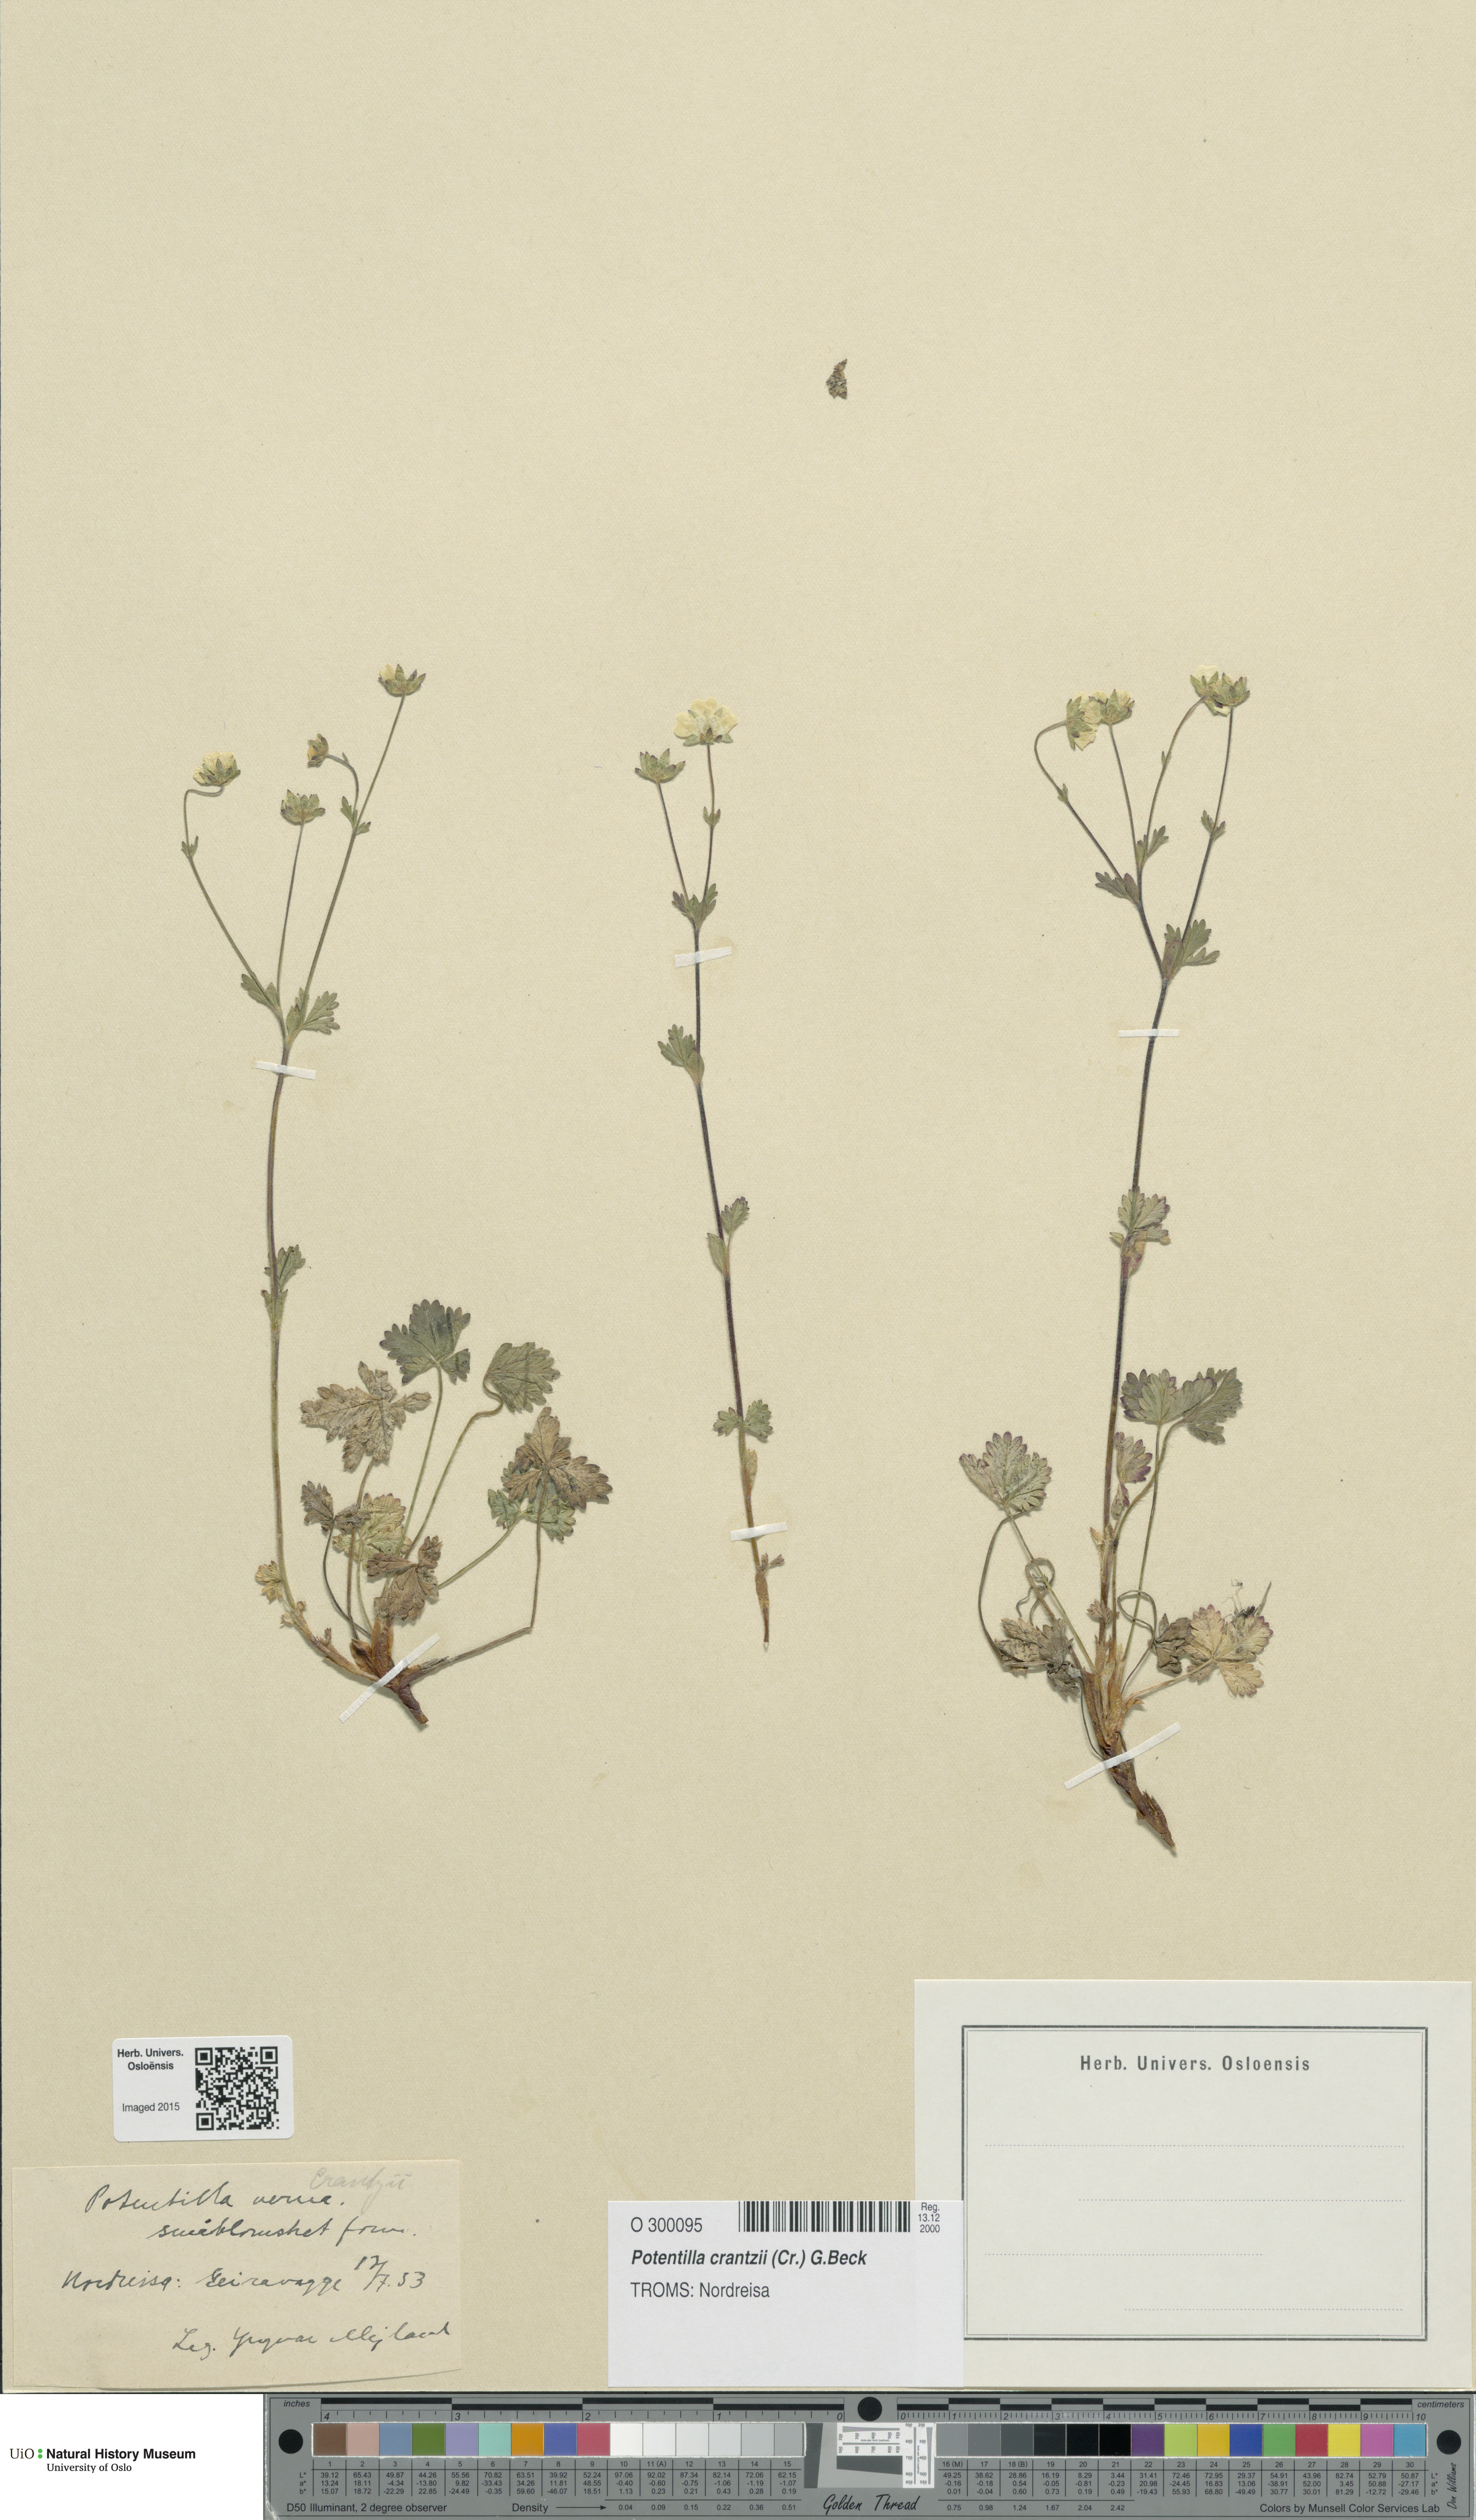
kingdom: Plantae
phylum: Tracheophyta
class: Magnoliopsida
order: Rosales
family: Rosaceae
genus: Potentilla
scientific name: Potentilla verna
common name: Spring cinquefoil
